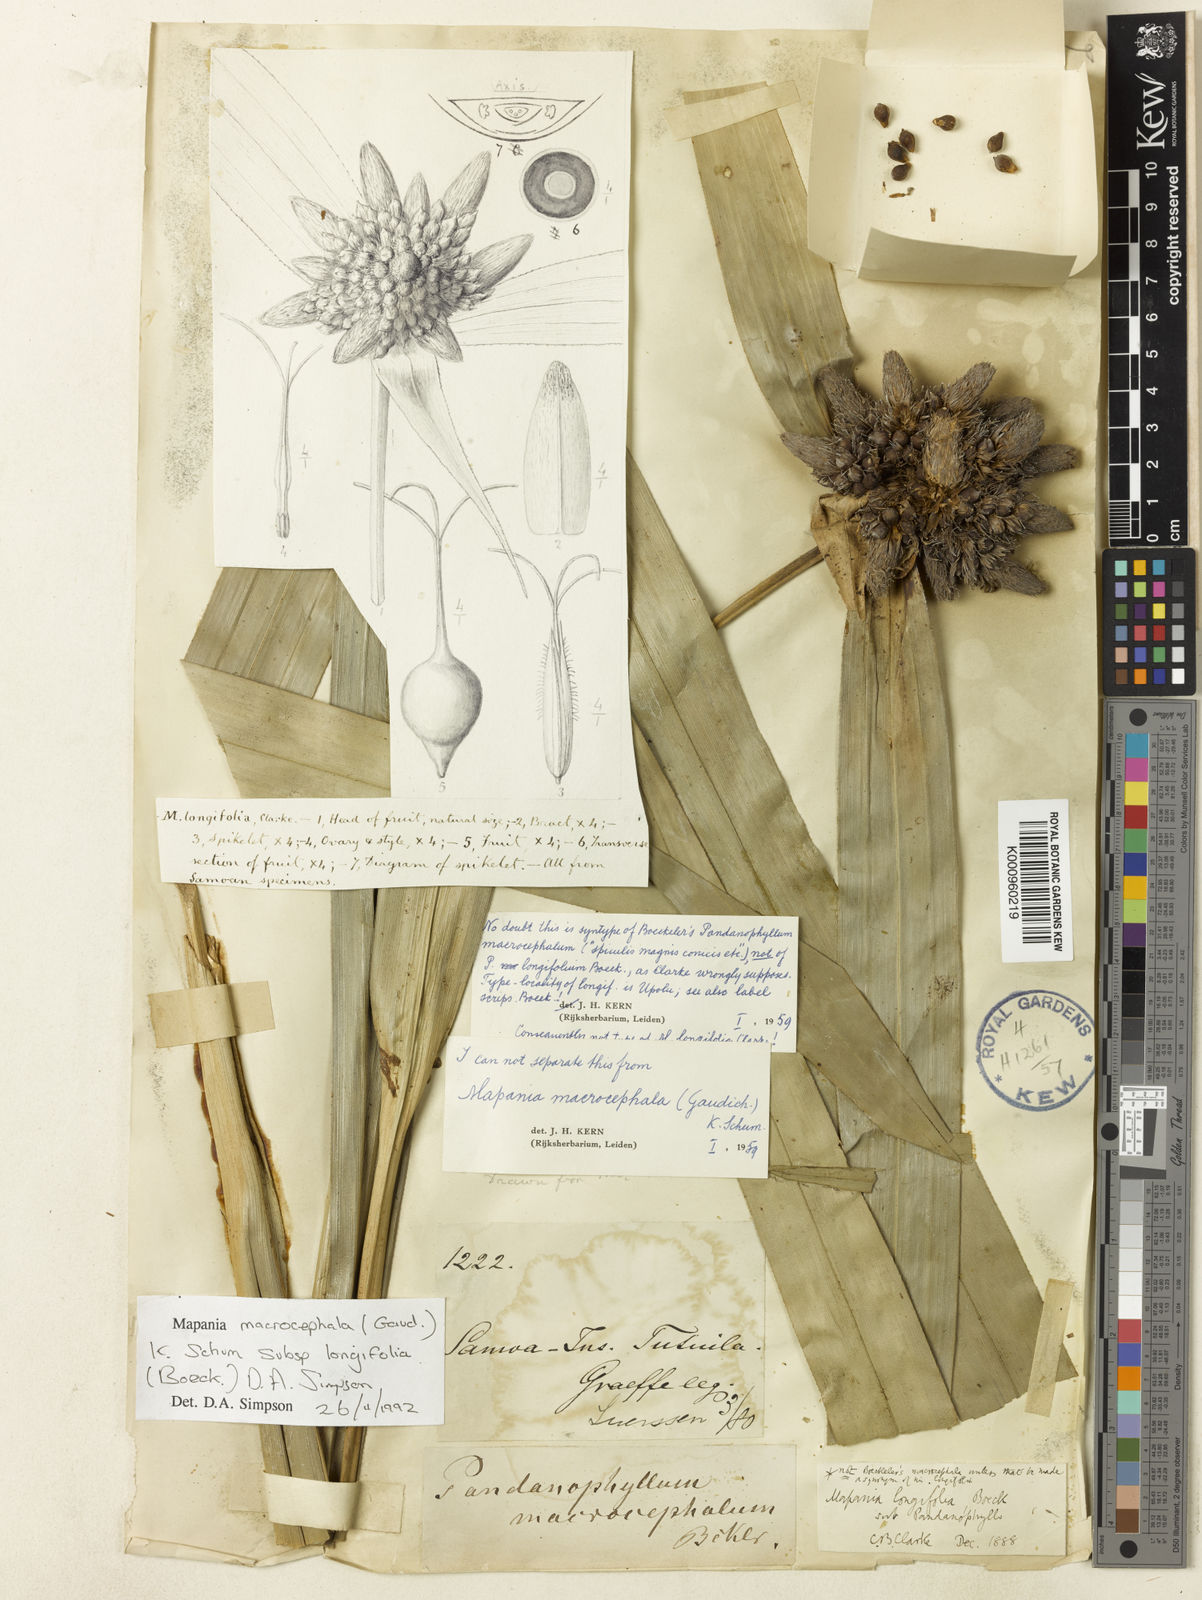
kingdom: Plantae
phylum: Tracheophyta
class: Liliopsida
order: Poales
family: Cyperaceae
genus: Mapania
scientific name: Mapania macrocephala
